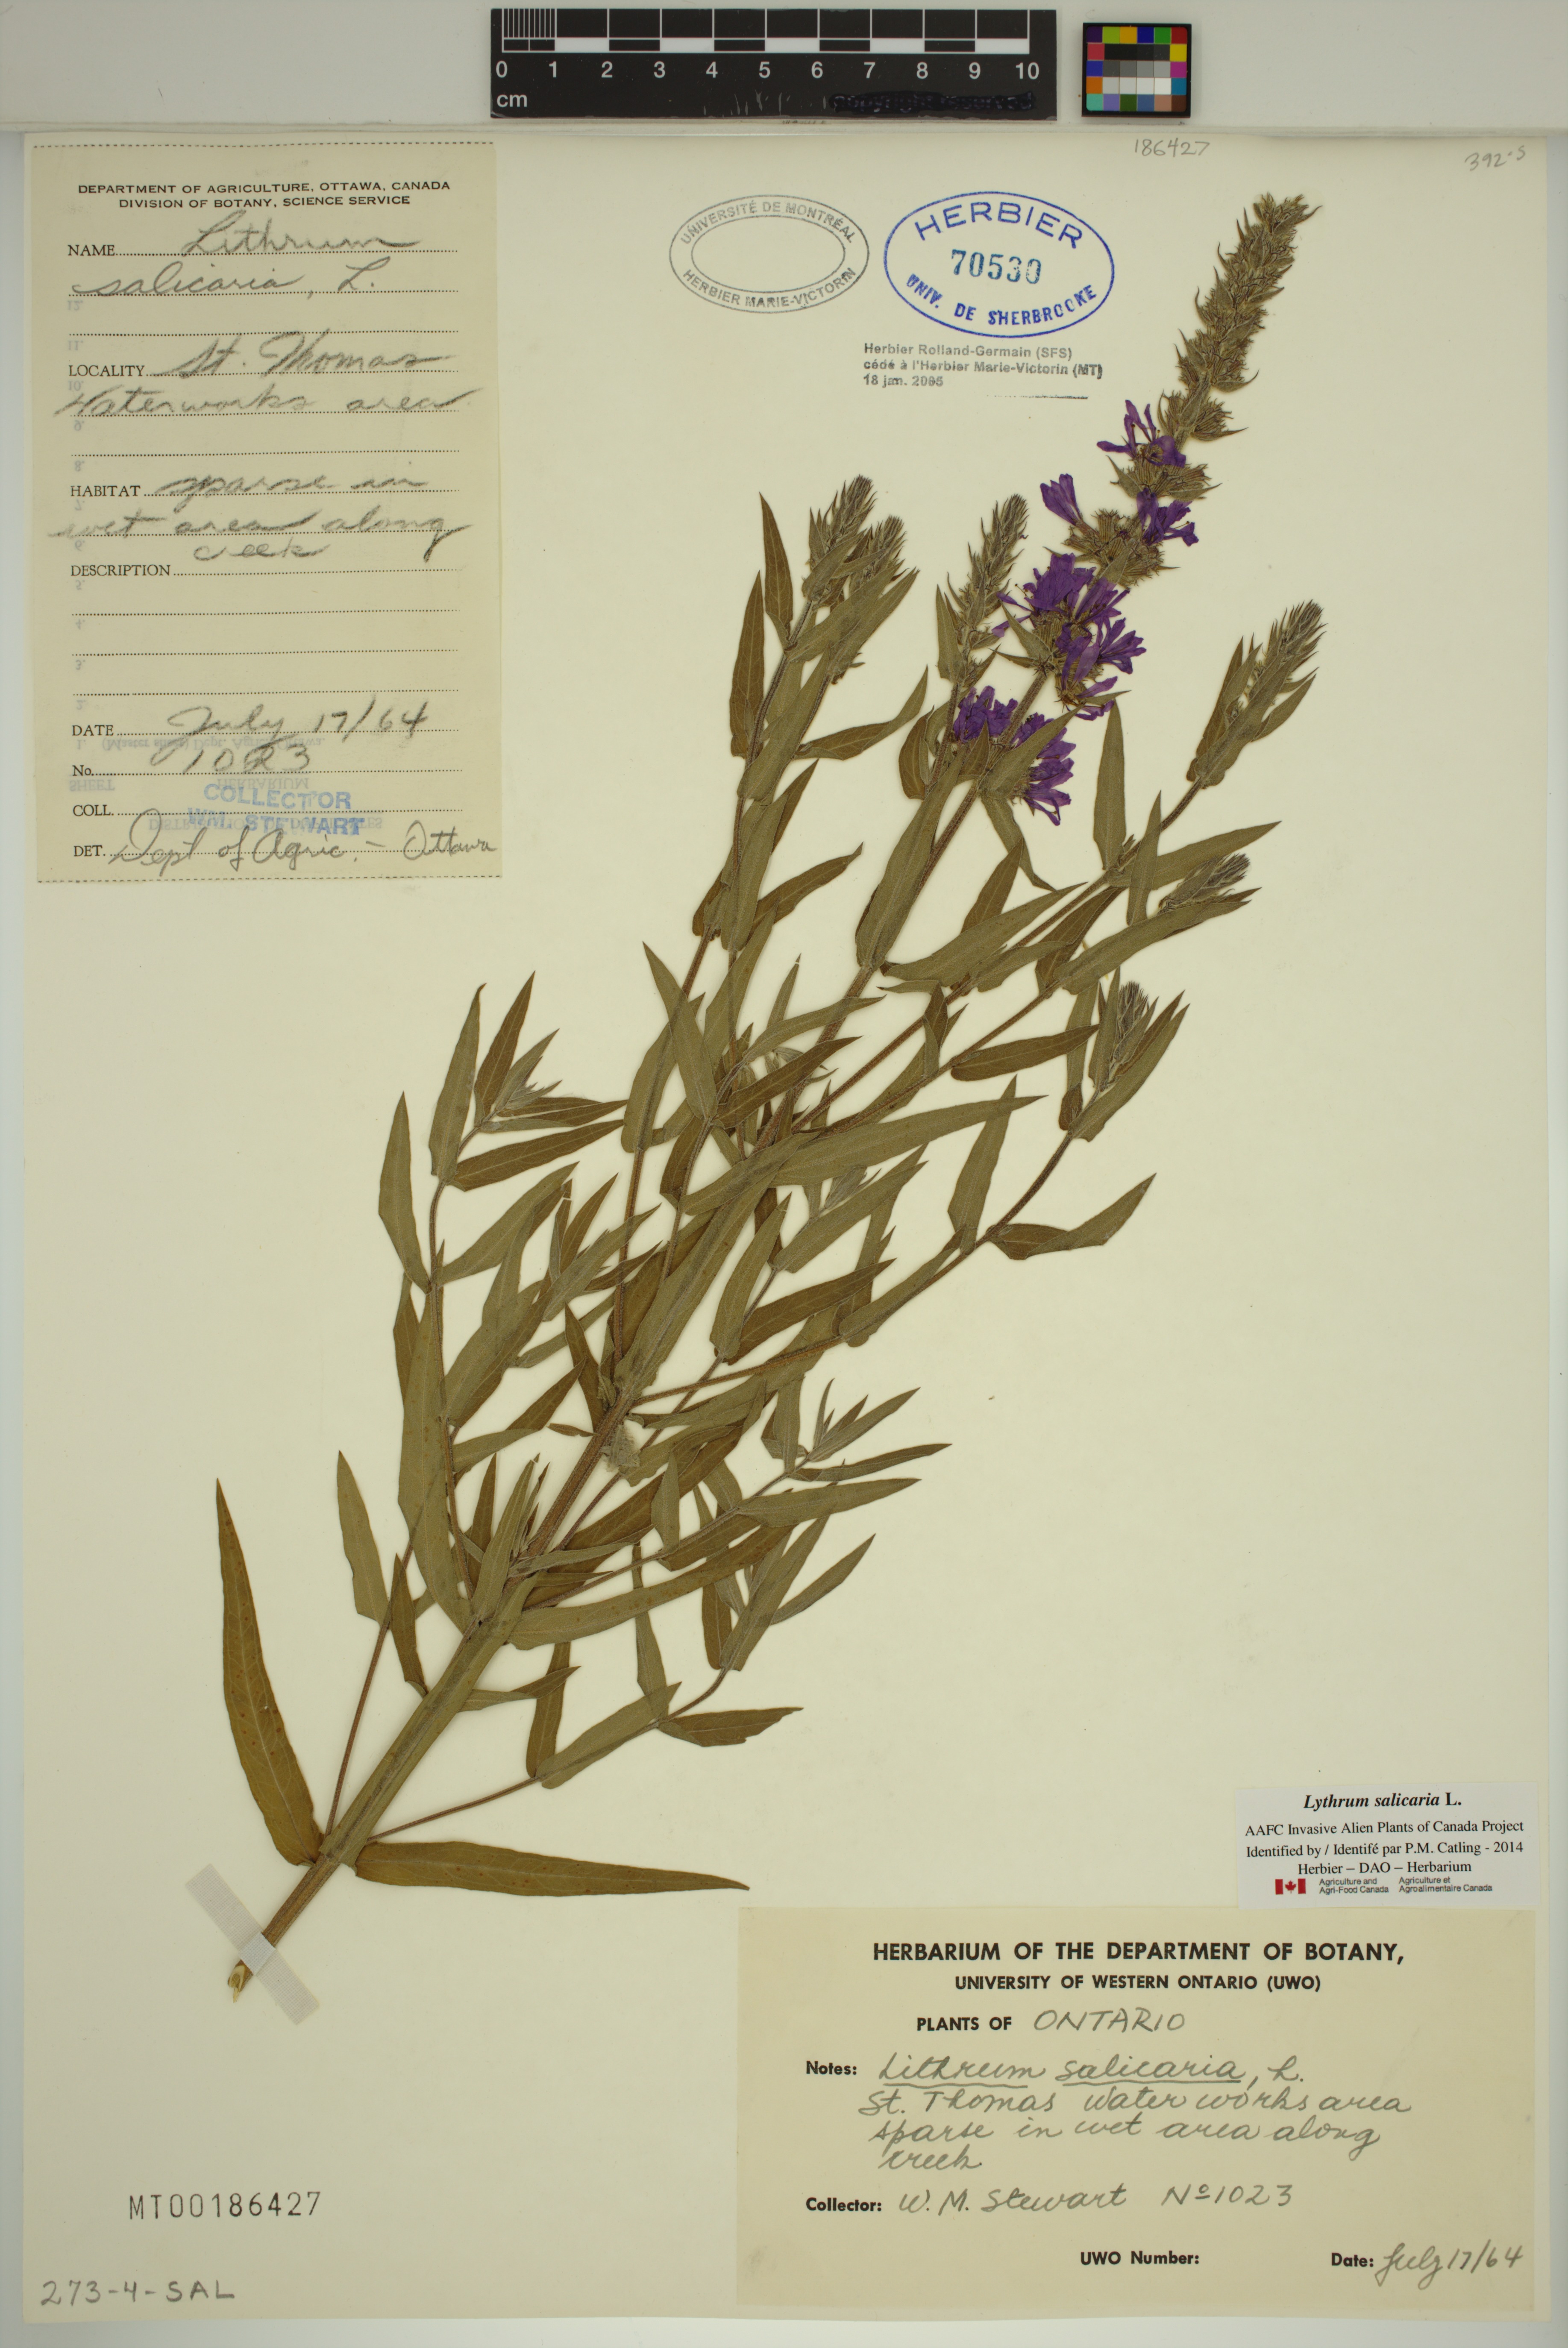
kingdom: Plantae
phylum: Tracheophyta
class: Magnoliopsida
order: Myrtales
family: Lythraceae
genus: Lythrum
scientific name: Lythrum salicaria
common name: Purple loosestrife
